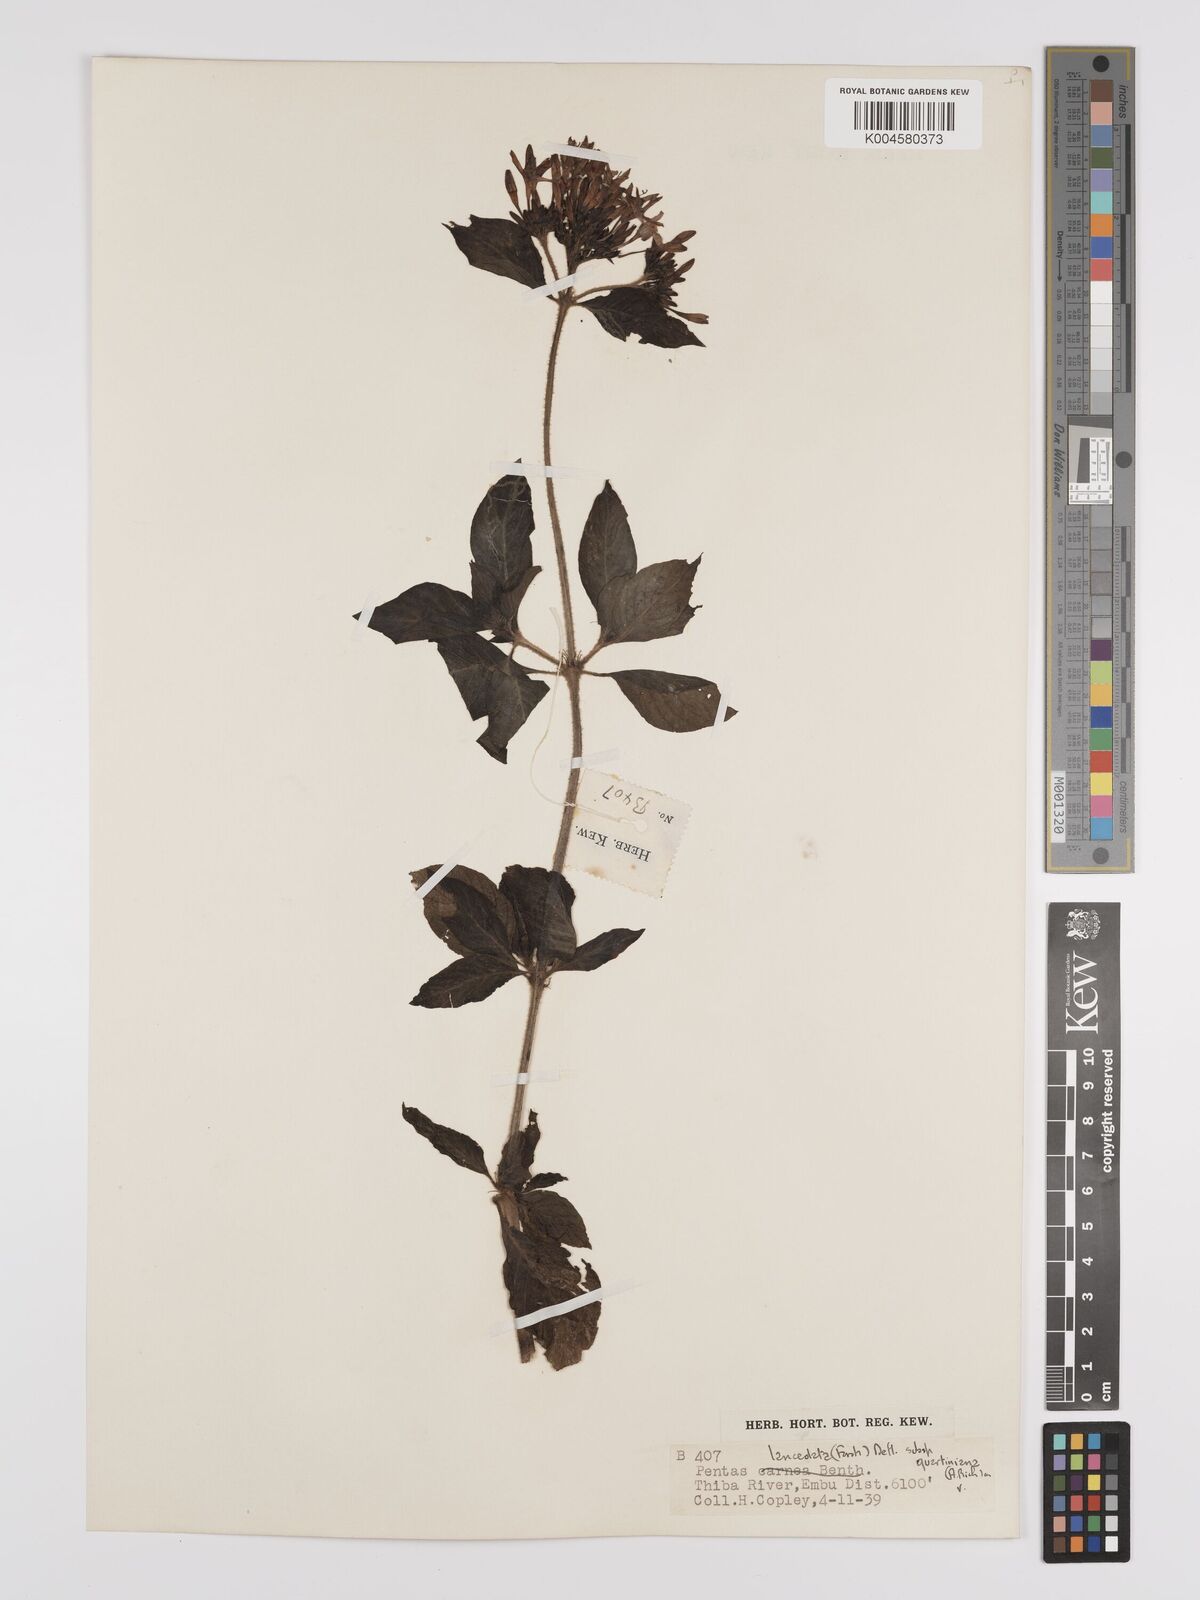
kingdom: Plantae
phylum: Tracheophyta
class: Magnoliopsida
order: Gentianales
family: Rubiaceae
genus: Pentas
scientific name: Pentas lanceolata
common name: Egyptian starcluster
